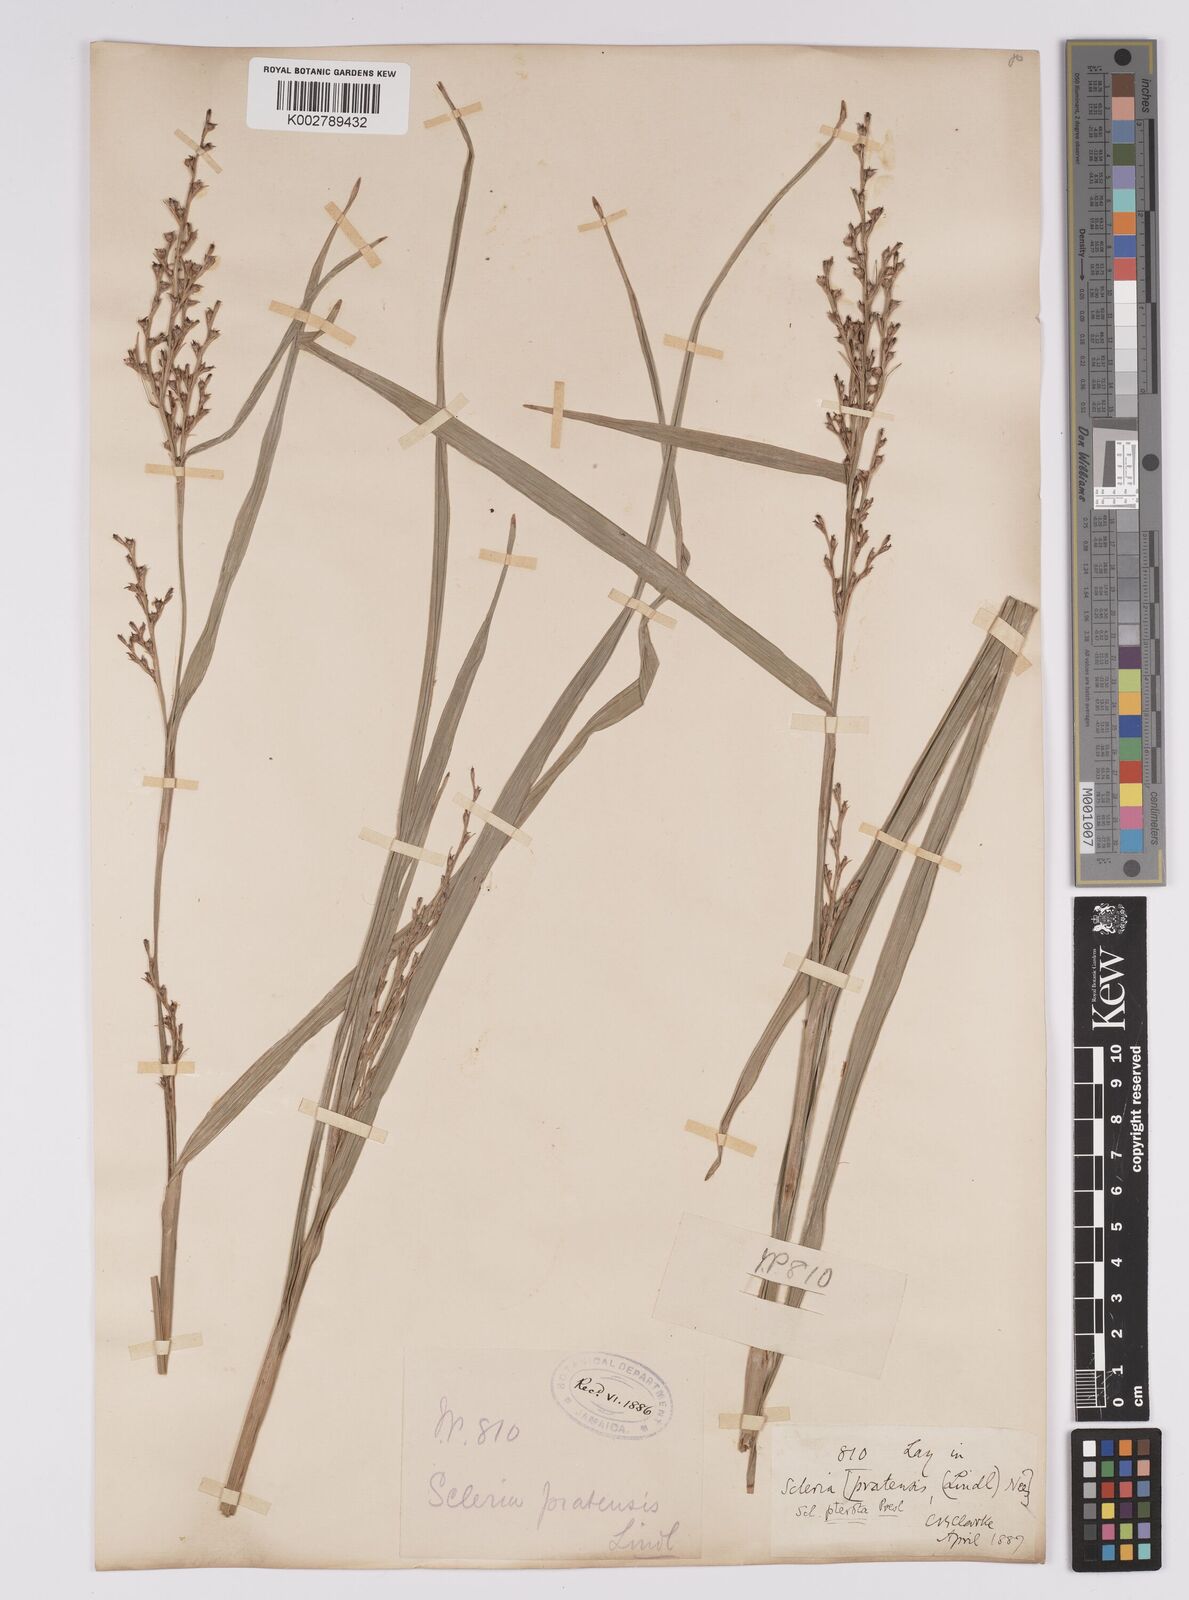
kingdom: Plantae
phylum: Tracheophyta
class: Liliopsida
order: Poales
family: Cyperaceae
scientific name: Cyperaceae
